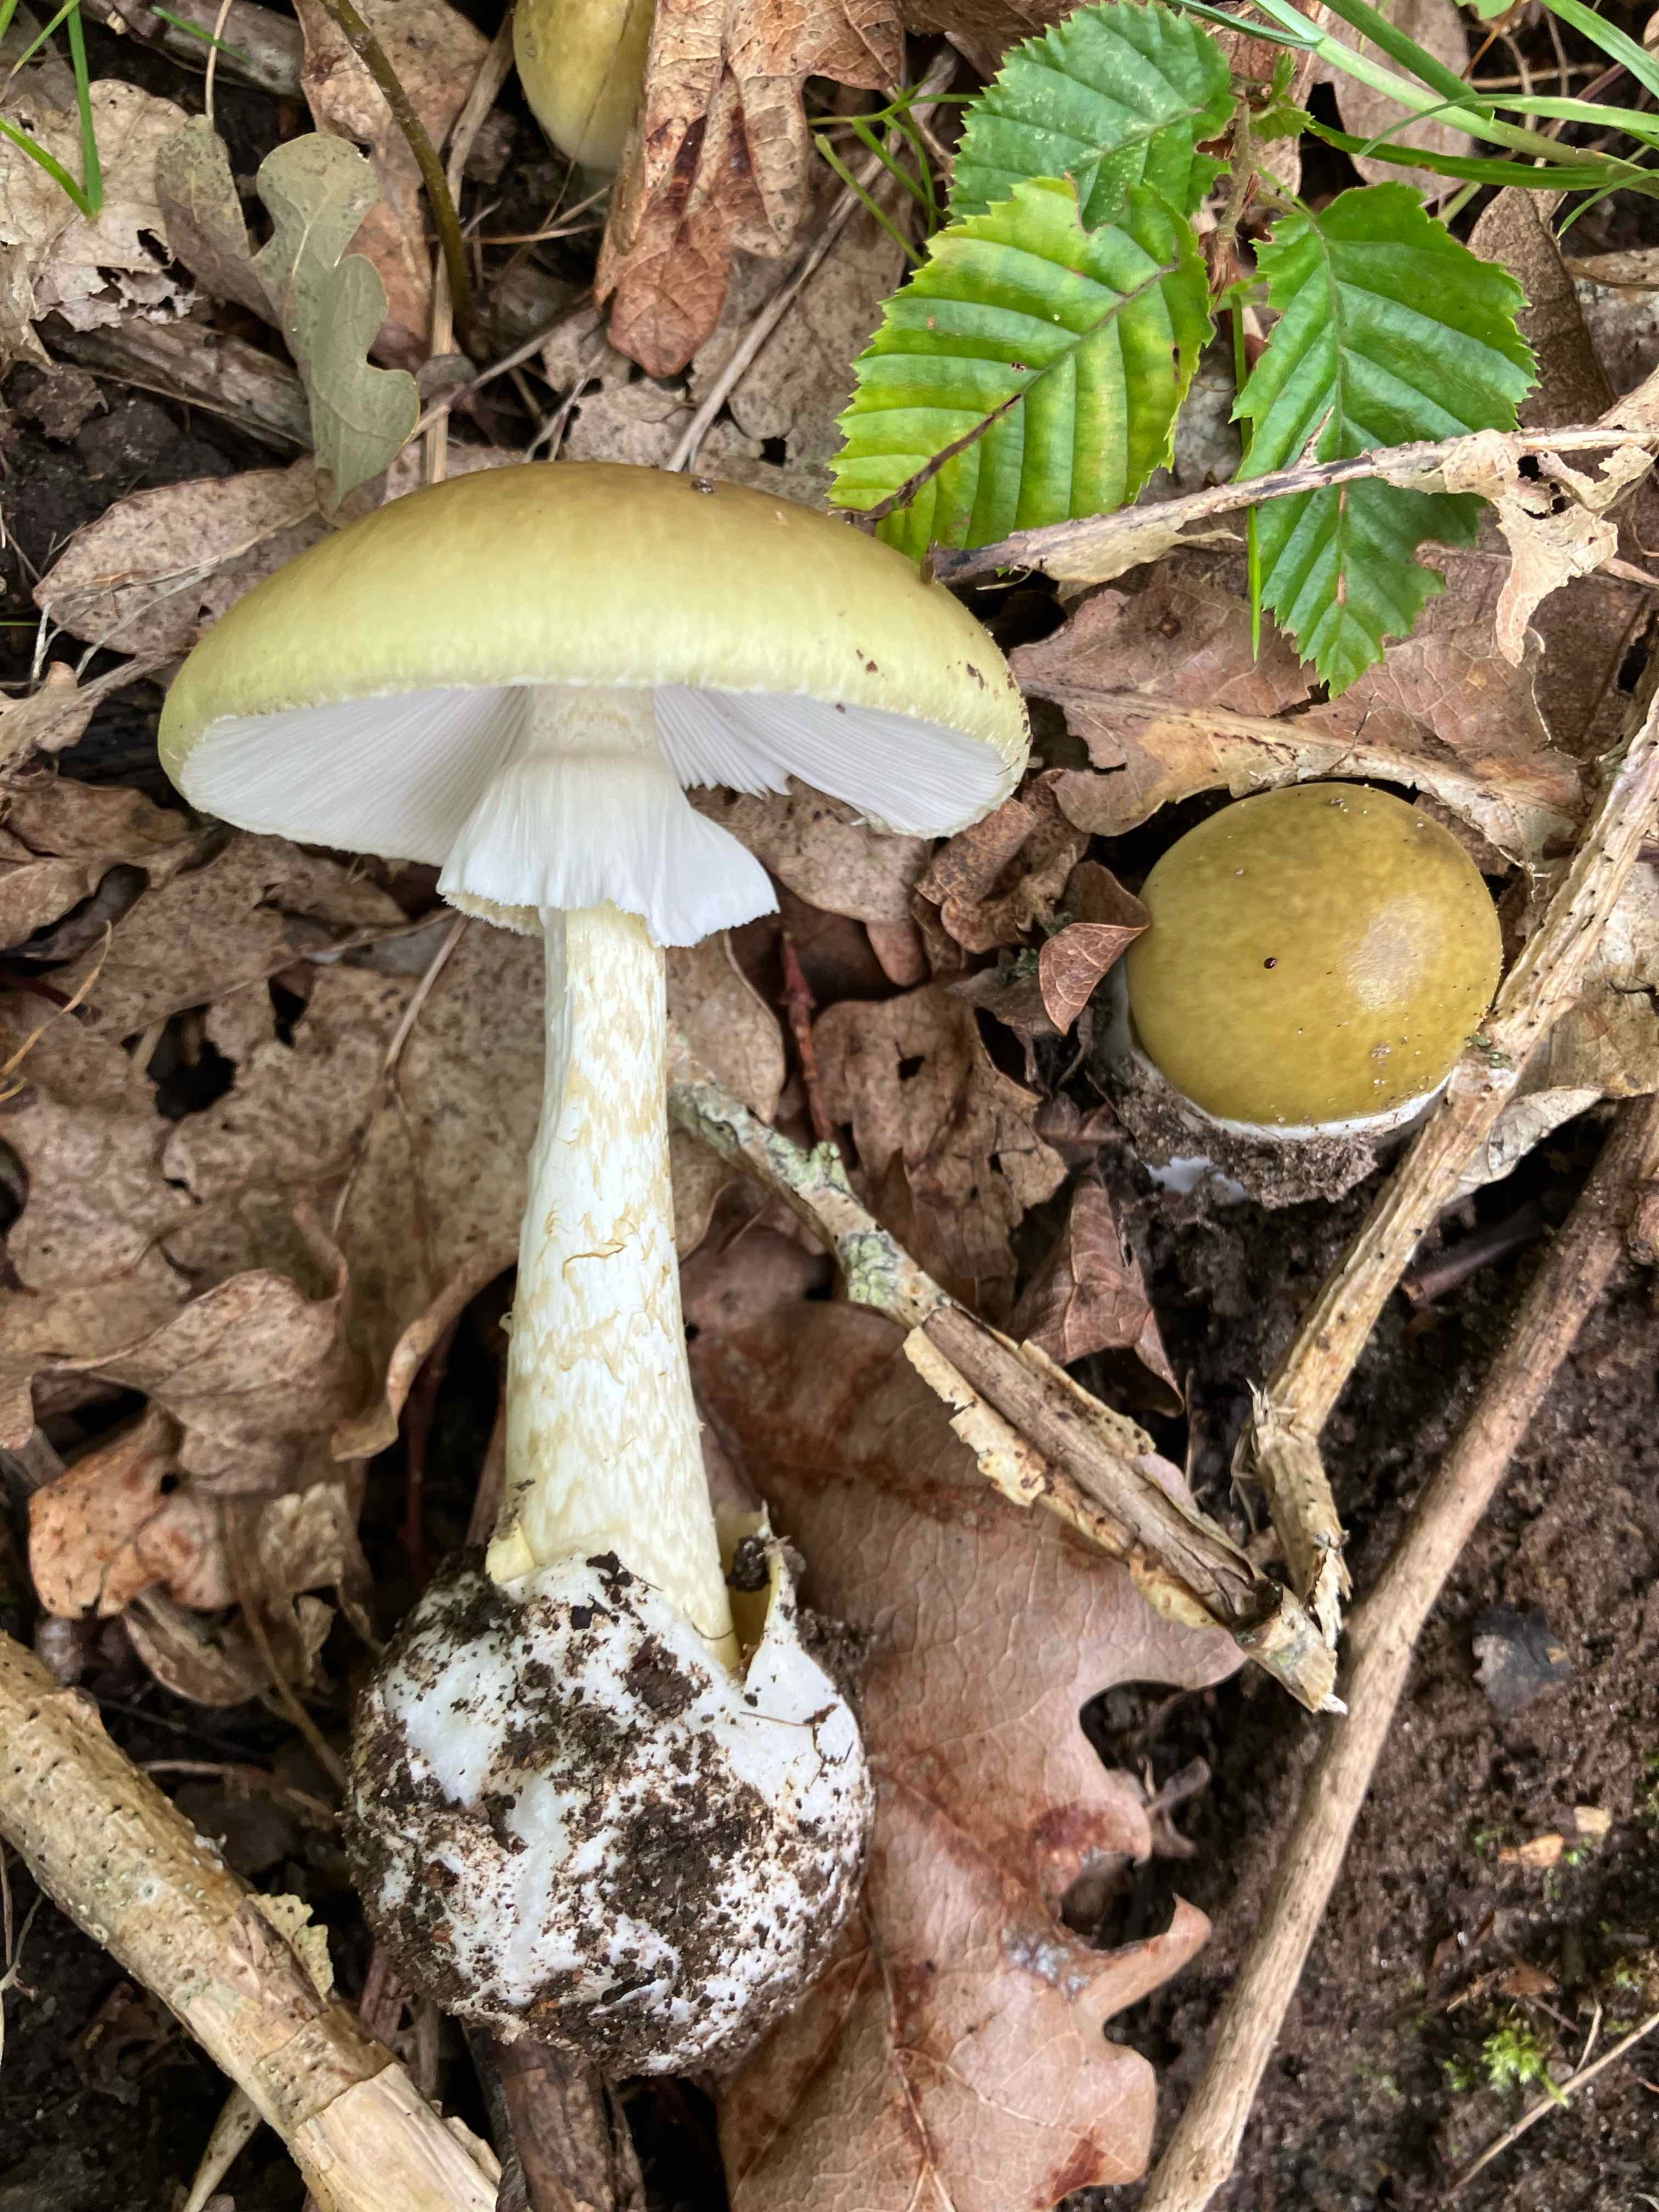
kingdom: Fungi
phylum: Basidiomycota
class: Agaricomycetes
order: Agaricales
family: Amanitaceae
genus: Amanita
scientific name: Amanita phalloides
